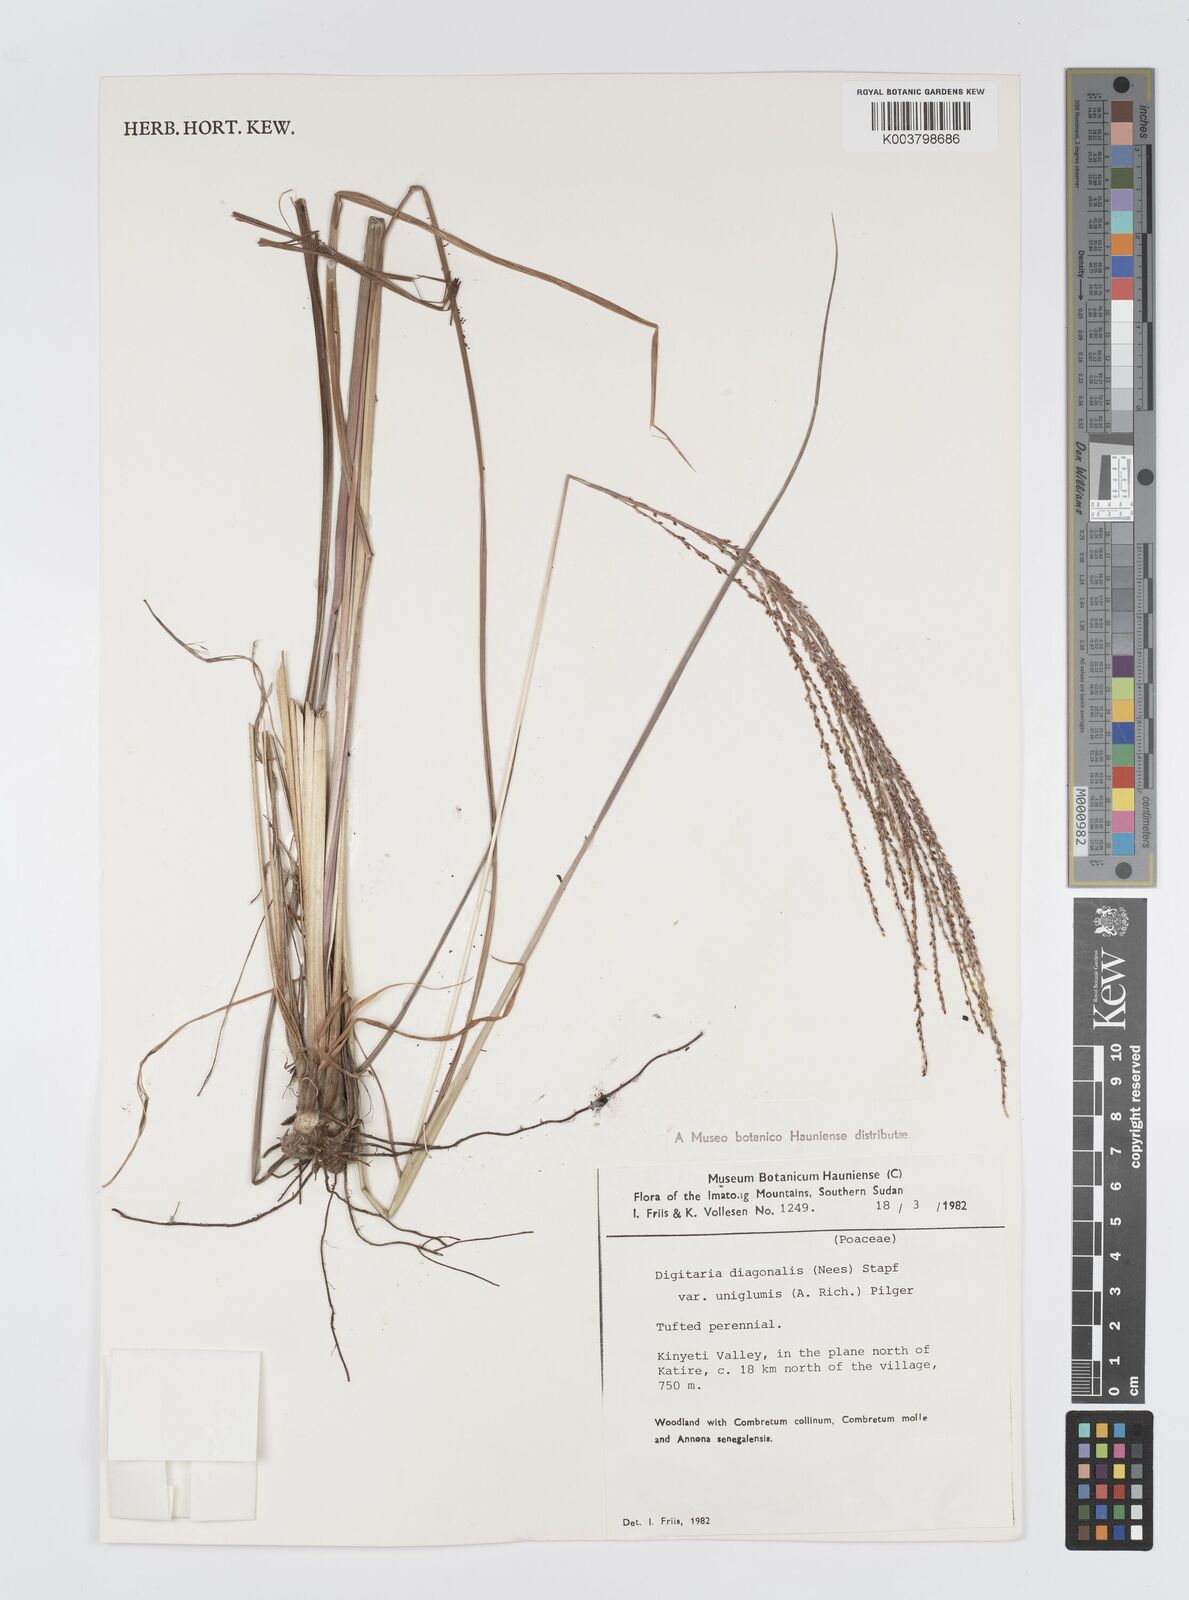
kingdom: Plantae
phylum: Tracheophyta
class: Liliopsida
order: Poales
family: Poaceae
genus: Digitaria
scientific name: Digitaria diagonalis
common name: Brown-seed finger grass
